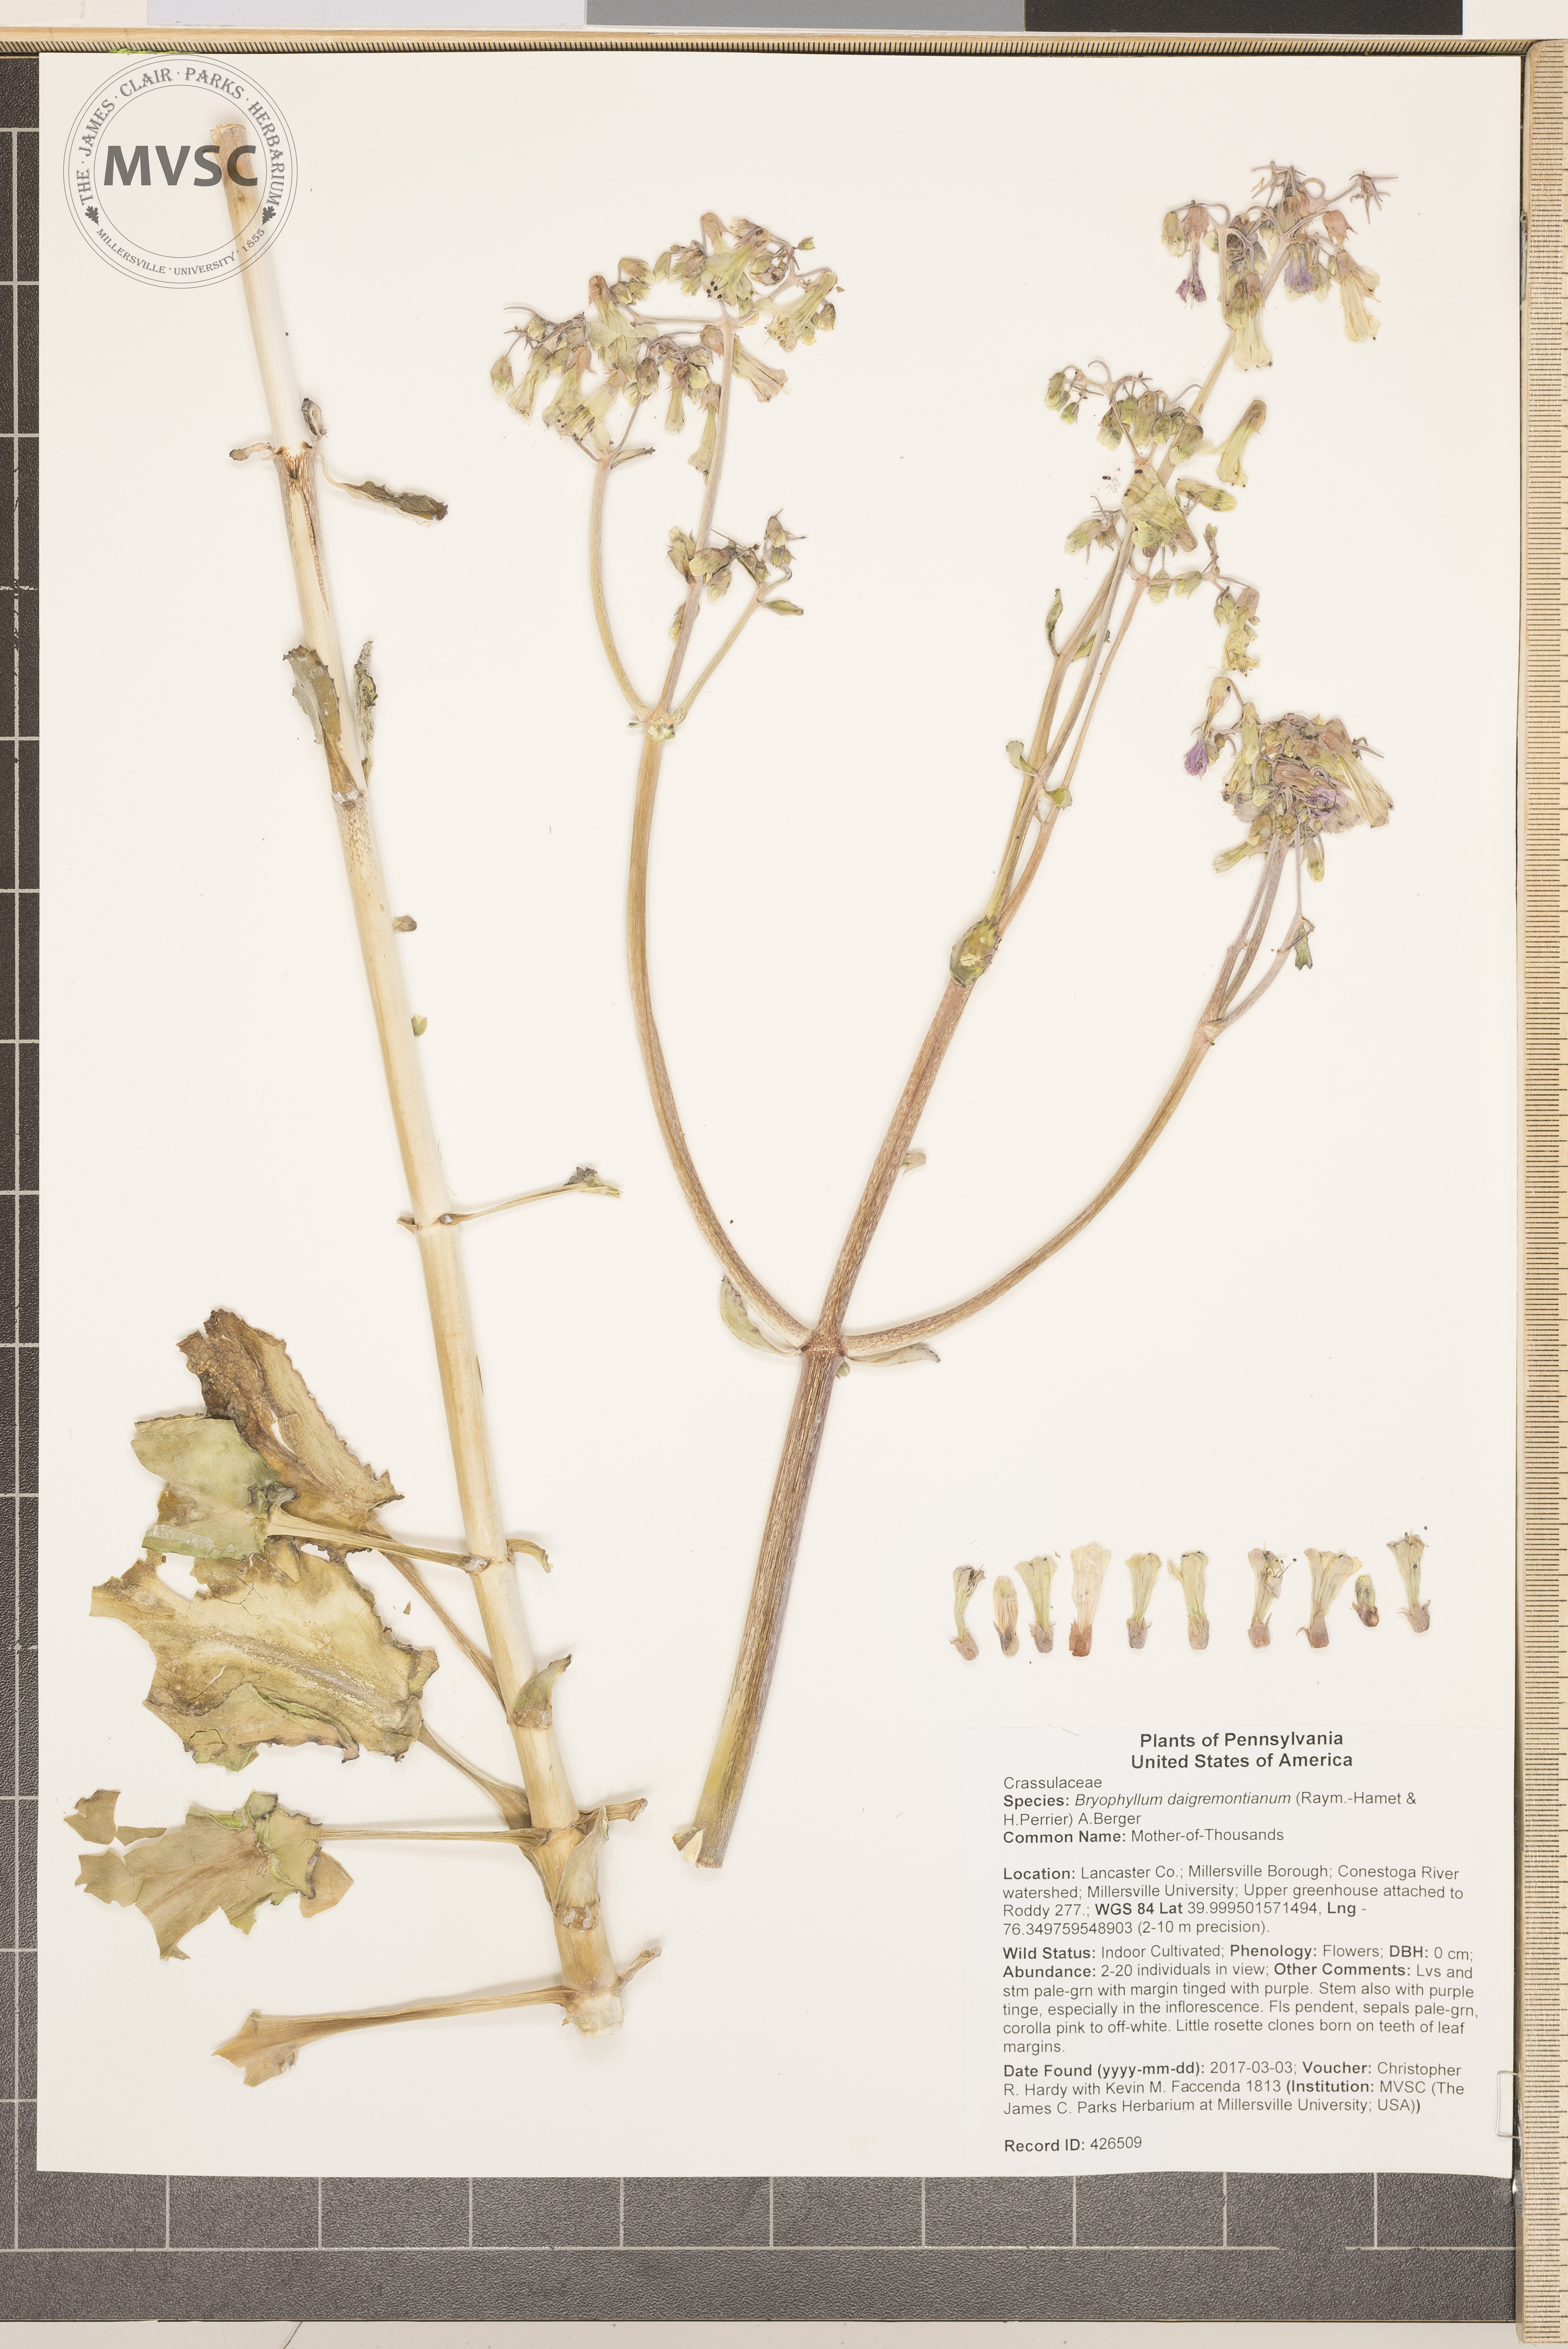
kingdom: Plantae
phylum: Tracheophyta
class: Magnoliopsida
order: Saxifragales
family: Crassulaceae
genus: Kalanchoe
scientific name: Kalanchoe daigremontiana
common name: Mother-of-Thousands
